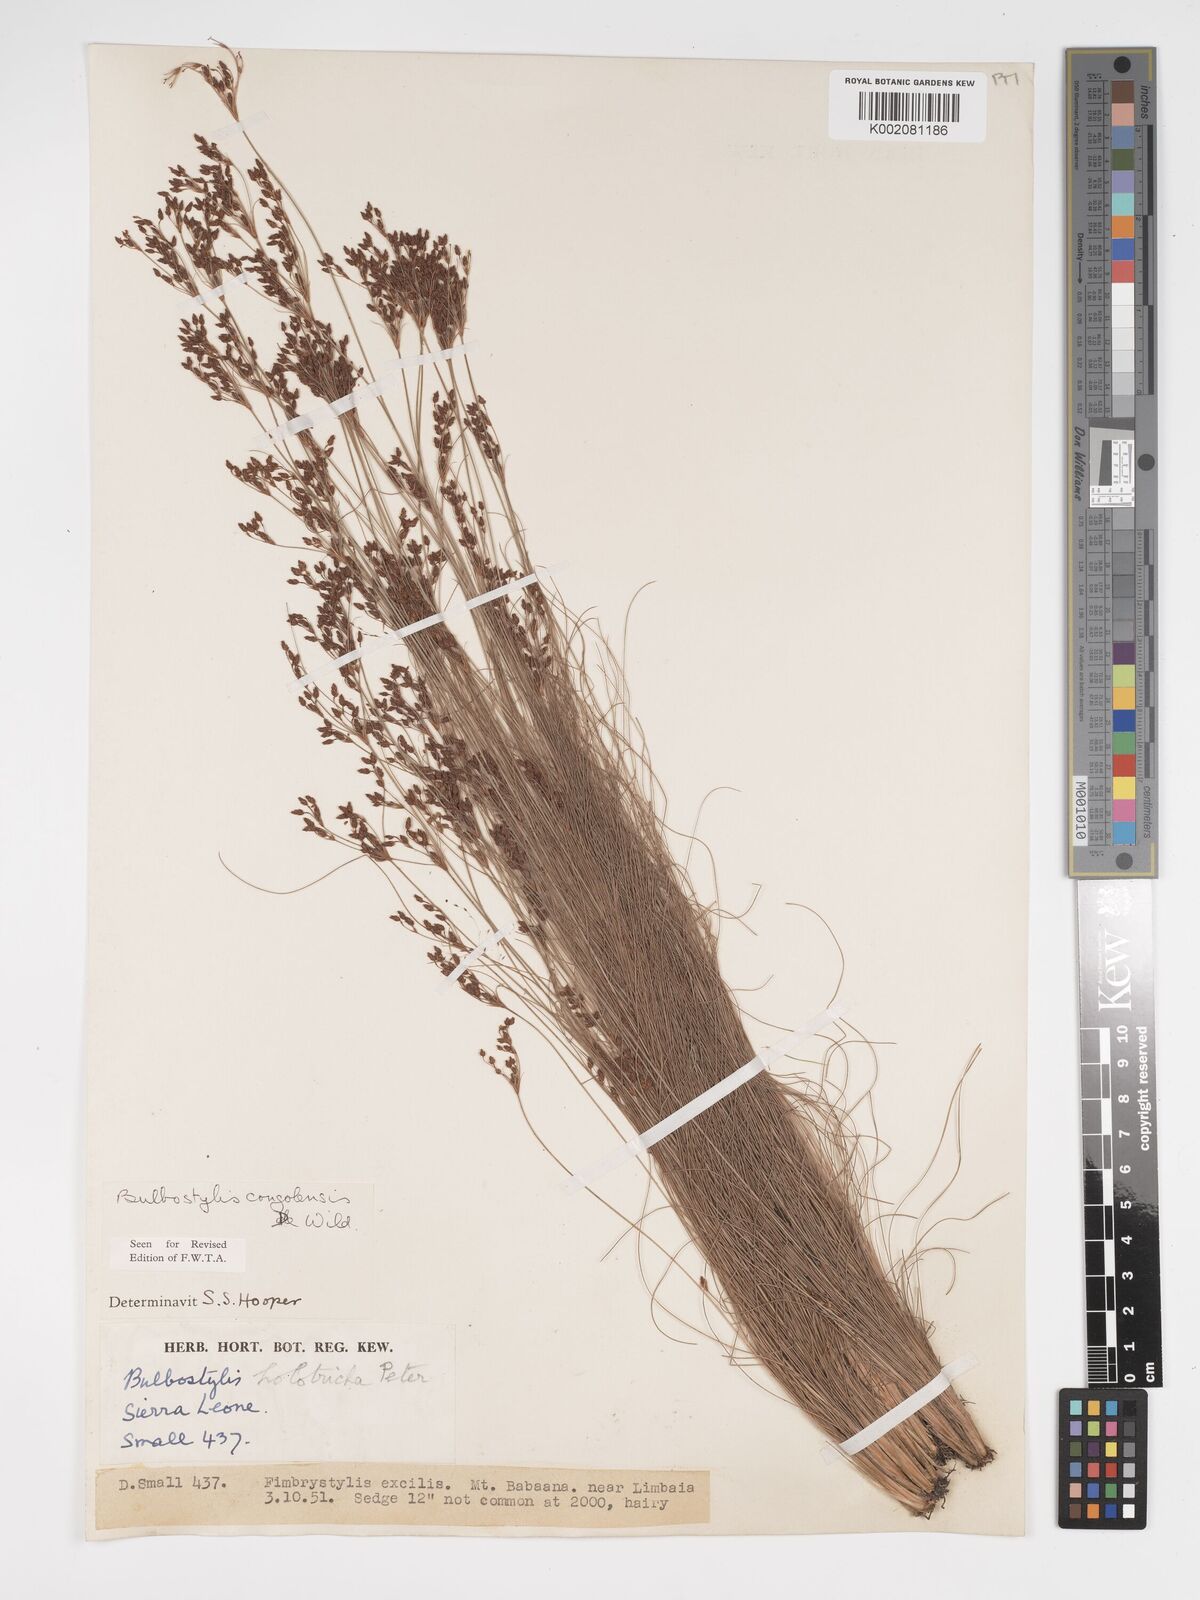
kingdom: Plantae
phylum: Tracheophyta
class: Liliopsida
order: Poales
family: Cyperaceae
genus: Bulbostylis
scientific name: Bulbostylis congolensis
